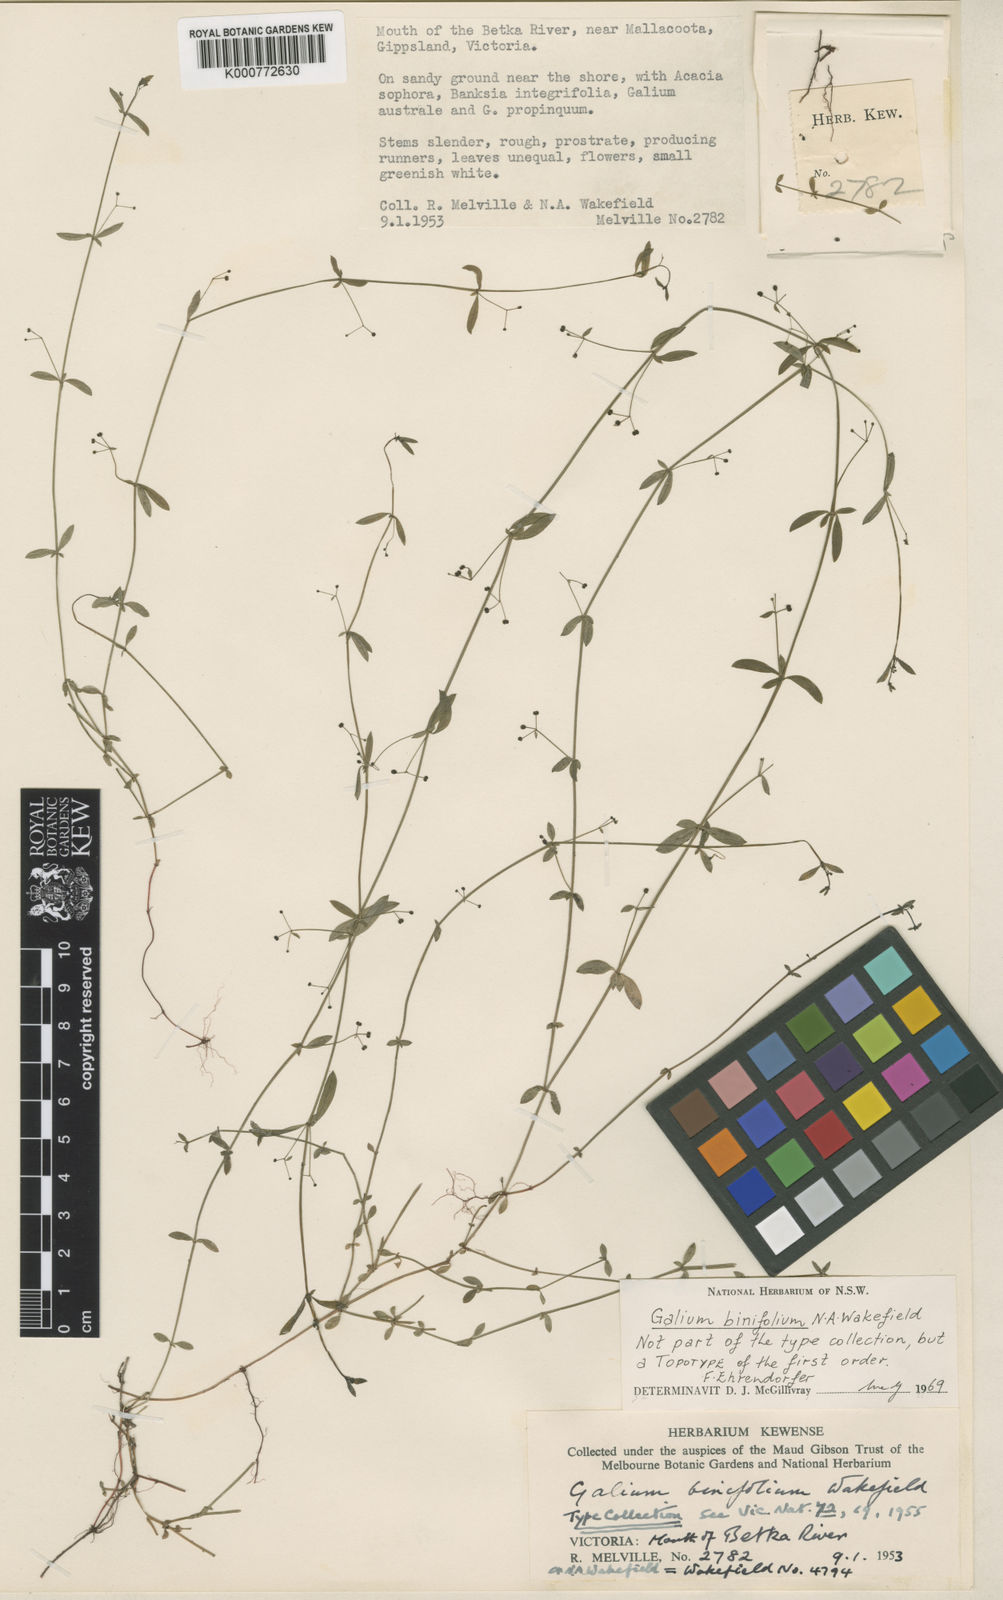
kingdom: Plantae
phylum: Tracheophyta
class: Magnoliopsida
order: Gentianales
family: Rubiaceae
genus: Galium
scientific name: Galium binifolium
